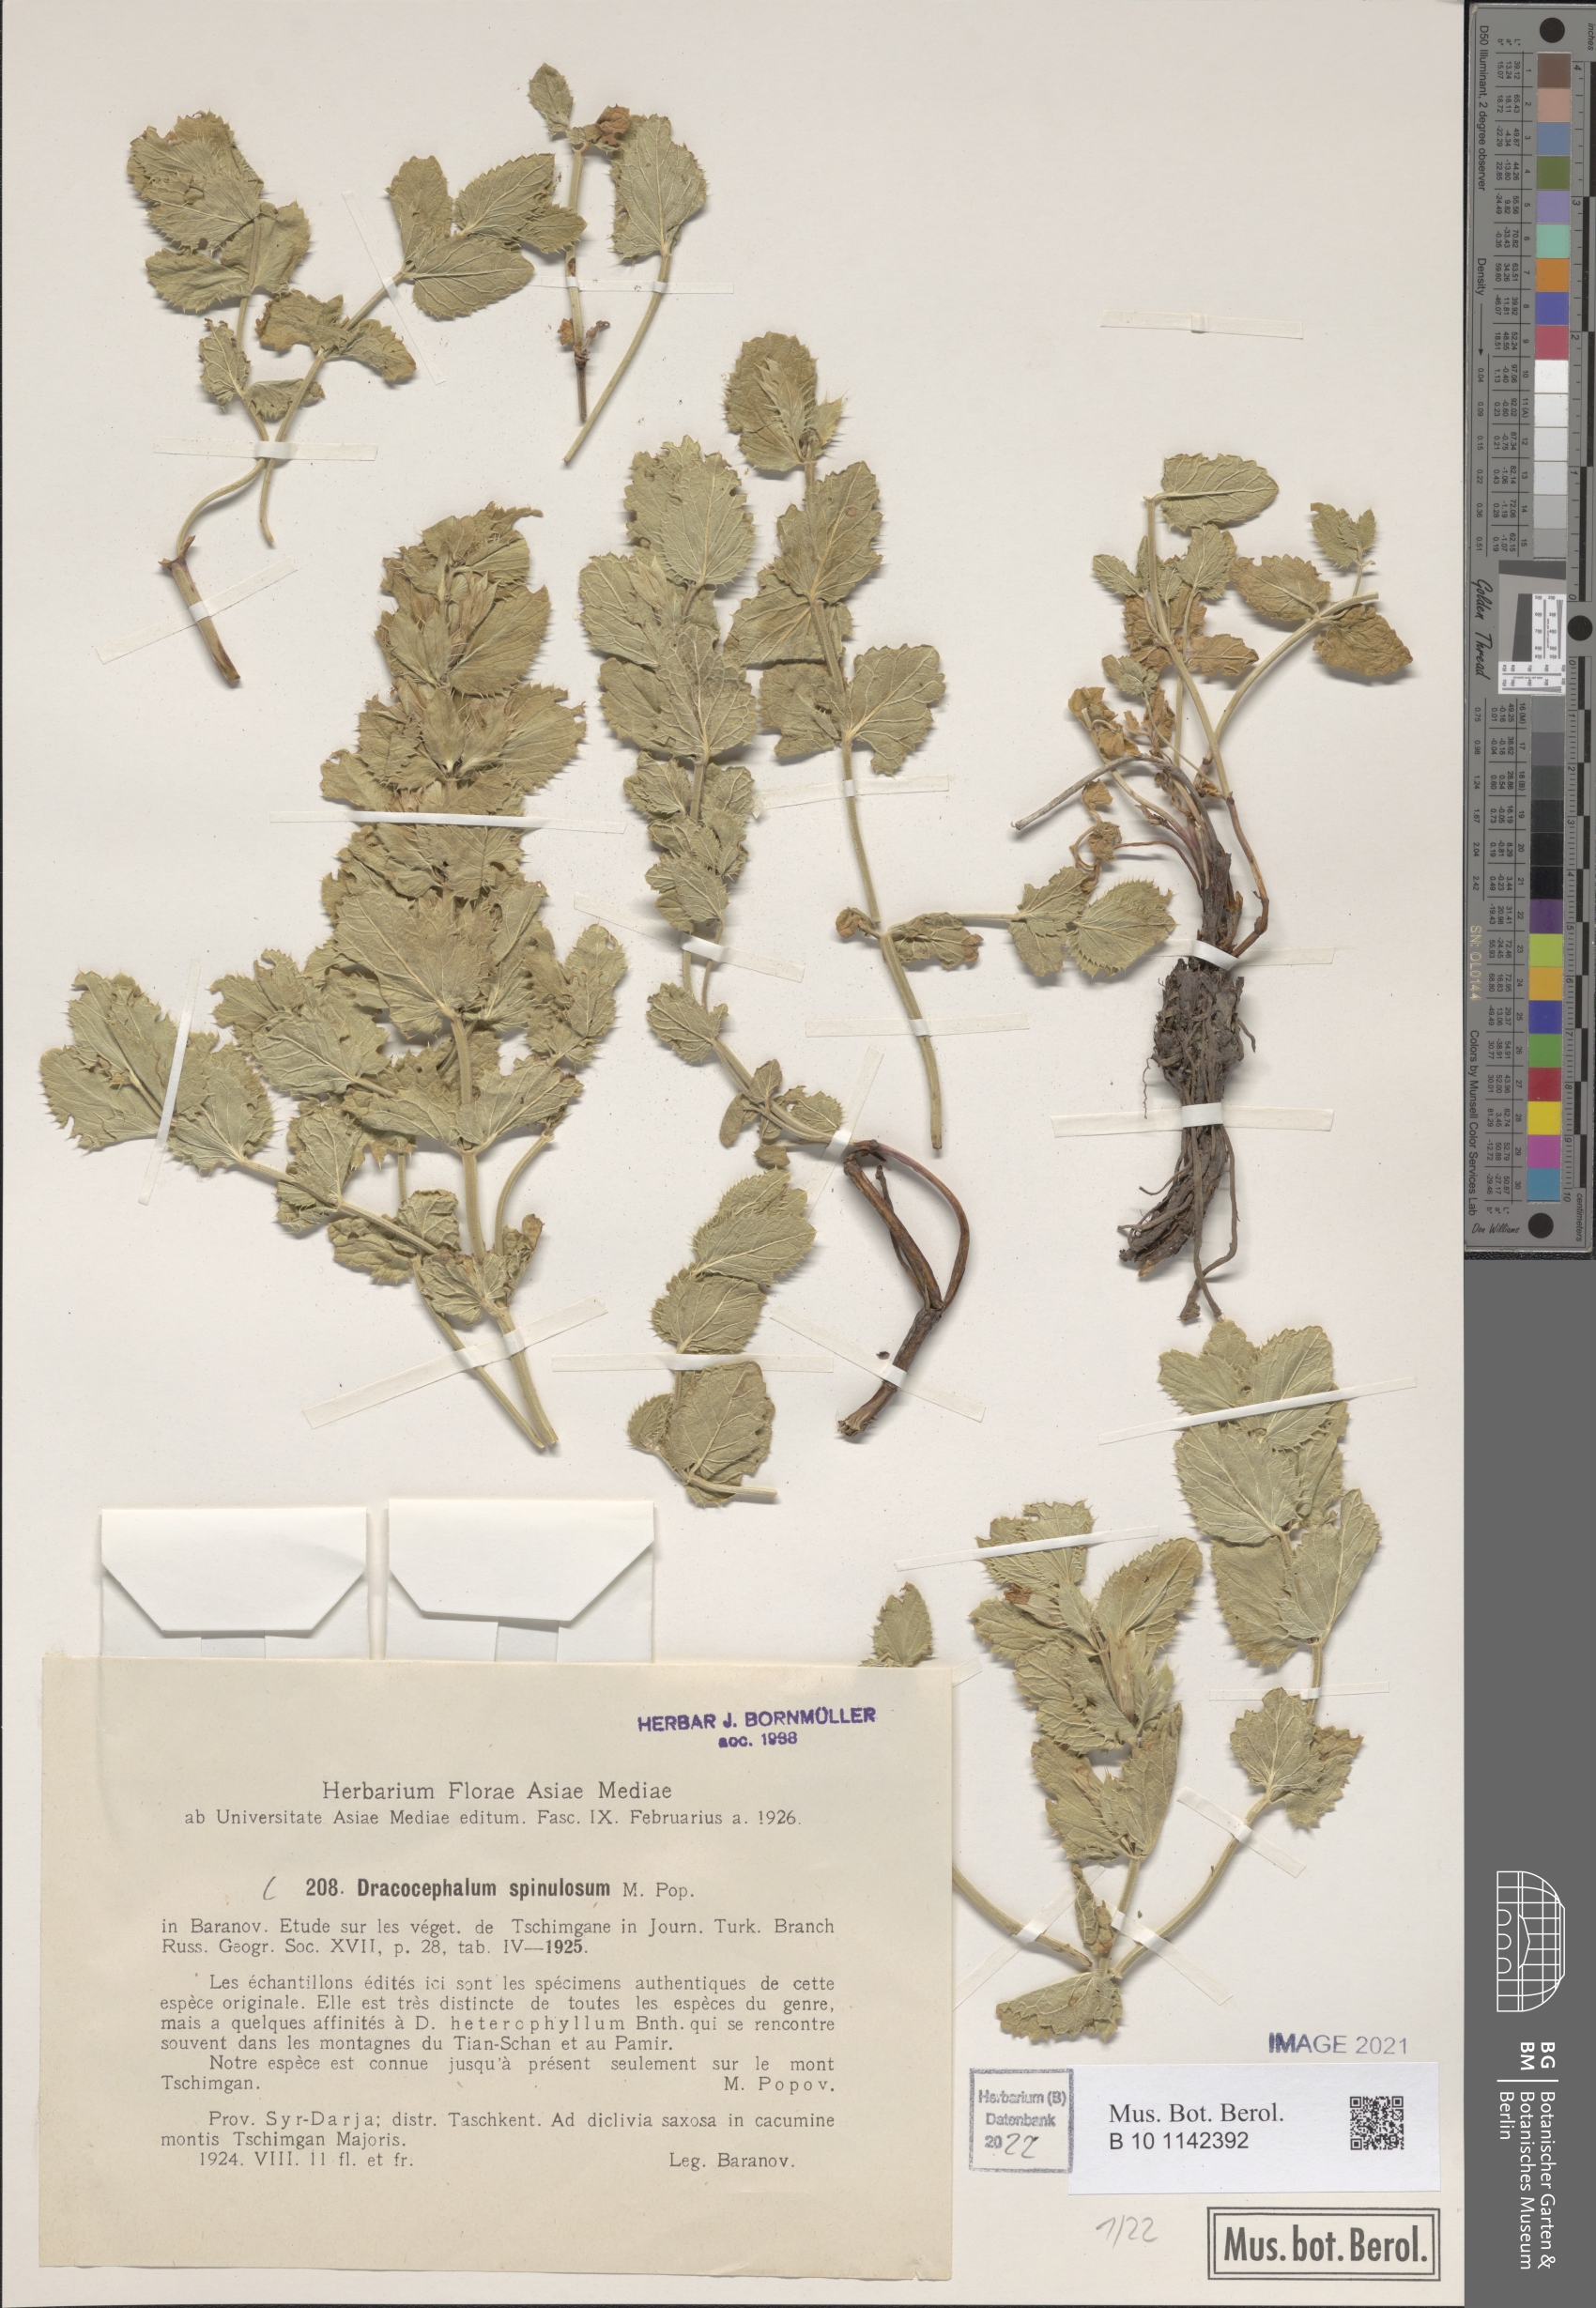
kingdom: Plantae
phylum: Tracheophyta
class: Magnoliopsida
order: Lamiales
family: Lamiaceae
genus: Dracocephalum
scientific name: Dracocephalum spinulosum
